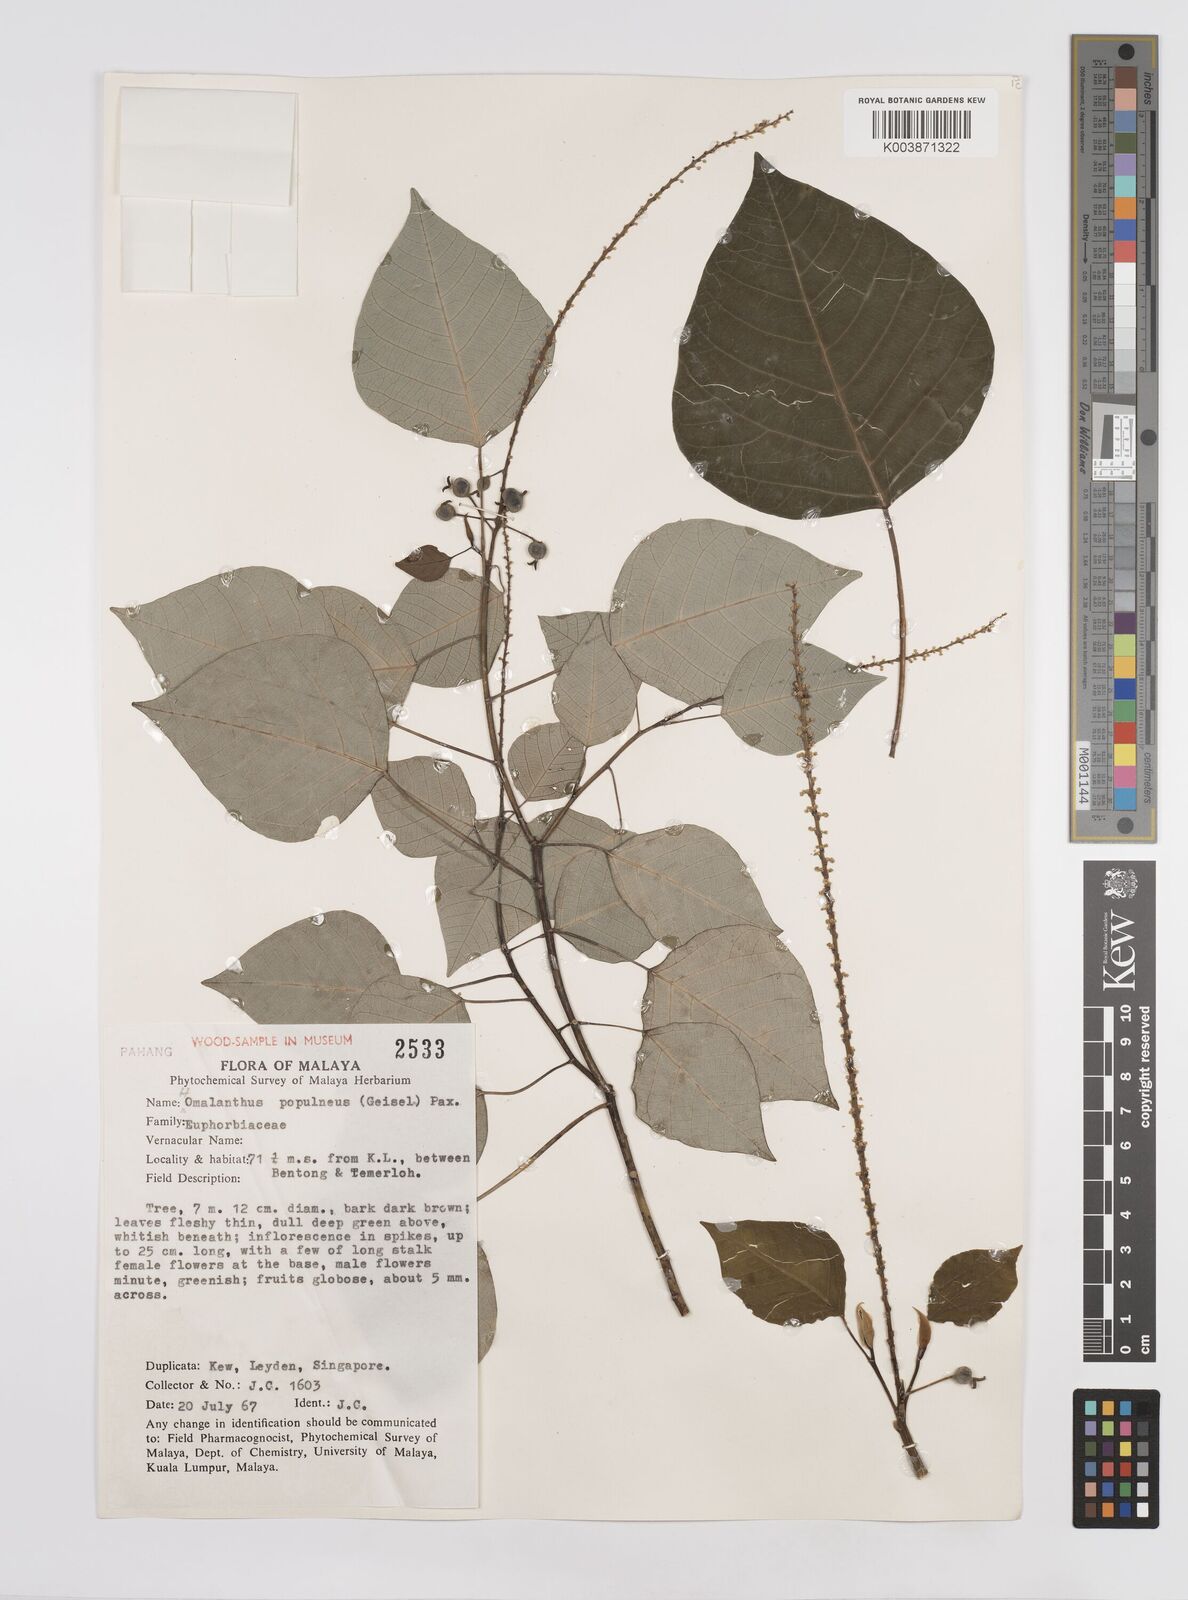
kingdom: Plantae
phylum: Tracheophyta
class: Magnoliopsida
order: Malpighiales
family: Euphorbiaceae
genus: Homalanthus
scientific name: Homalanthus populneus
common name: Spurge
